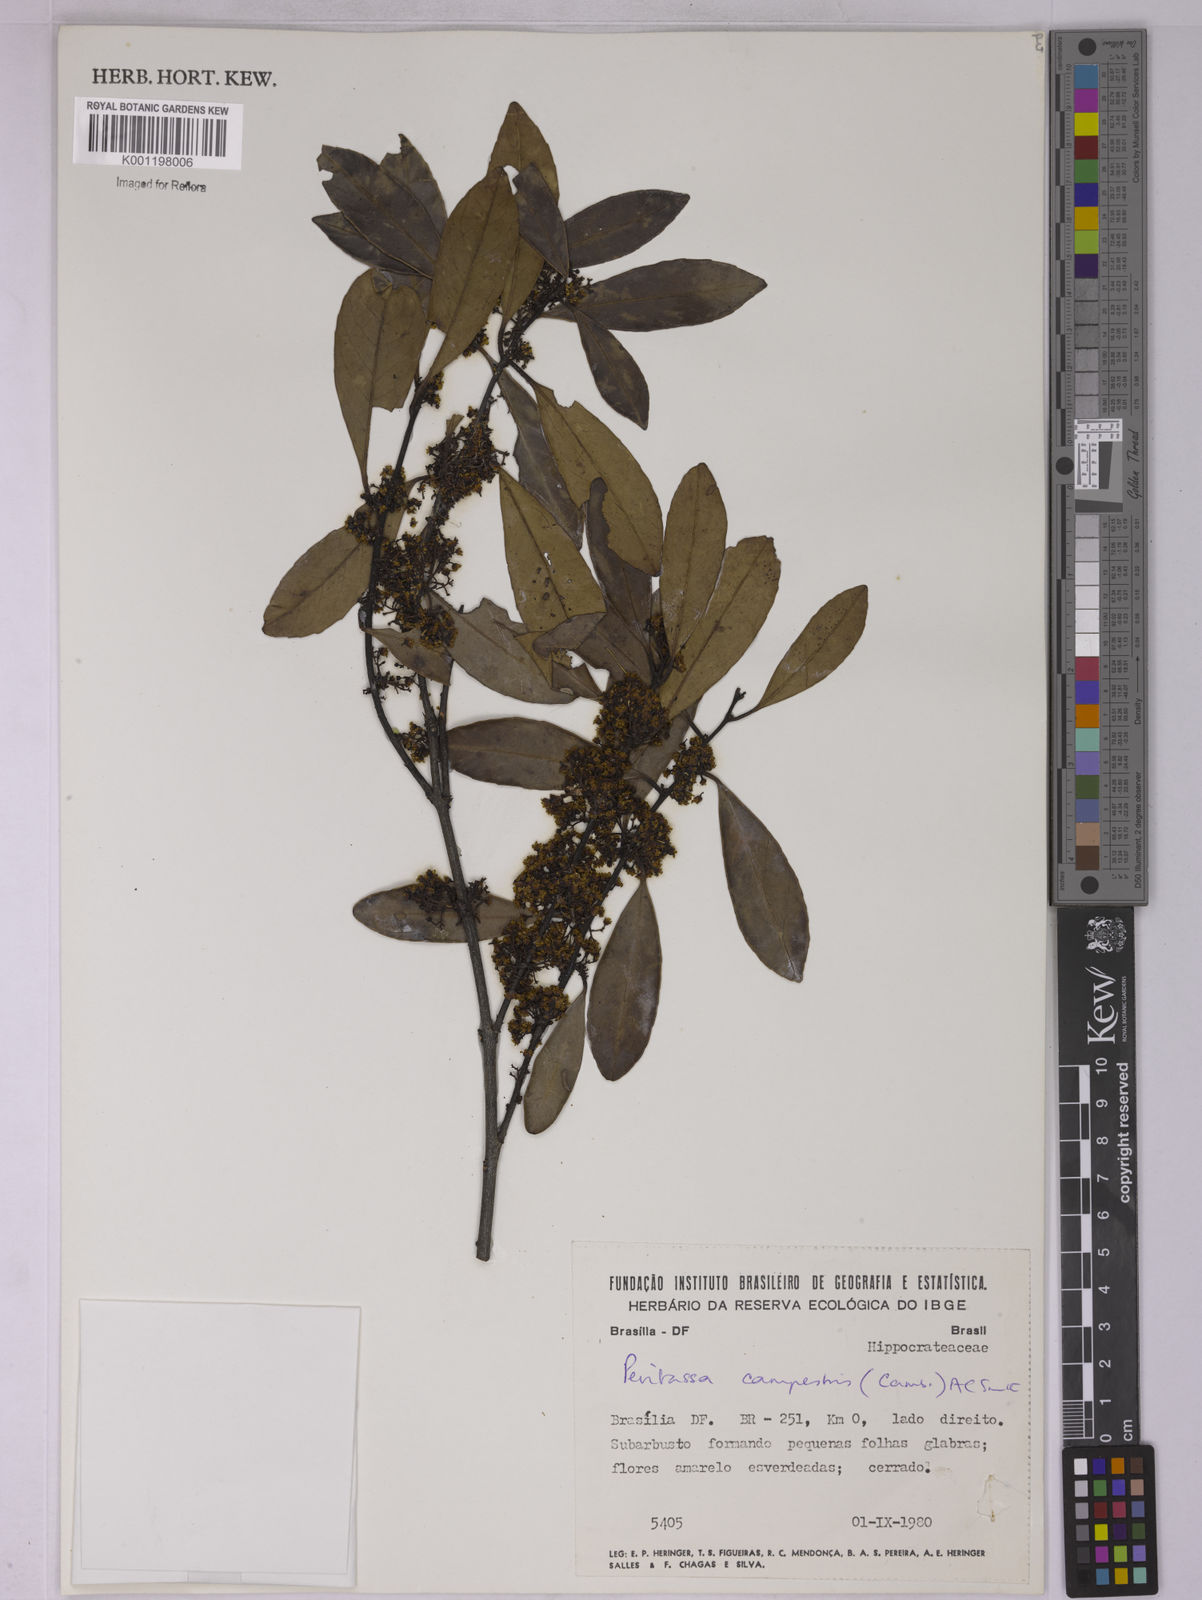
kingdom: Plantae
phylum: Tracheophyta
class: Magnoliopsida
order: Celastrales
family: Celastraceae
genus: Peritassa
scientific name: Peritassa campestris
